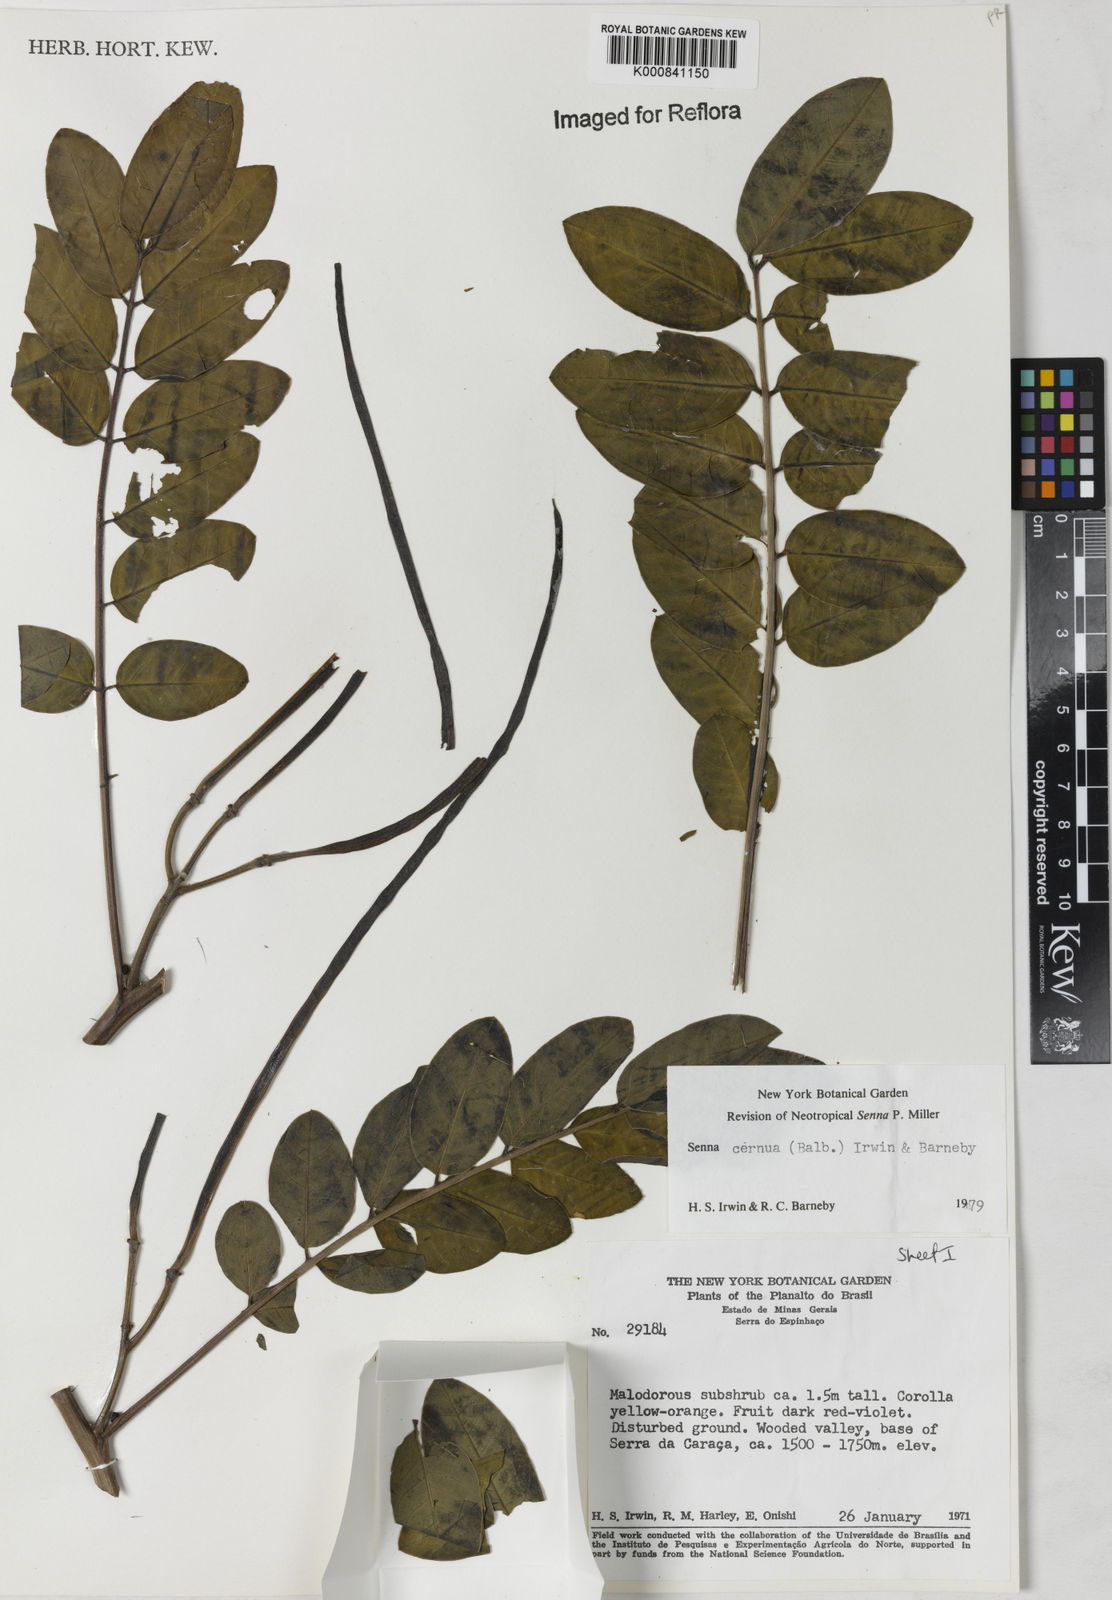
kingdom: Plantae
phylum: Tracheophyta
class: Magnoliopsida
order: Fabales
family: Fabaceae
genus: Senna
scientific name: Senna cernua
